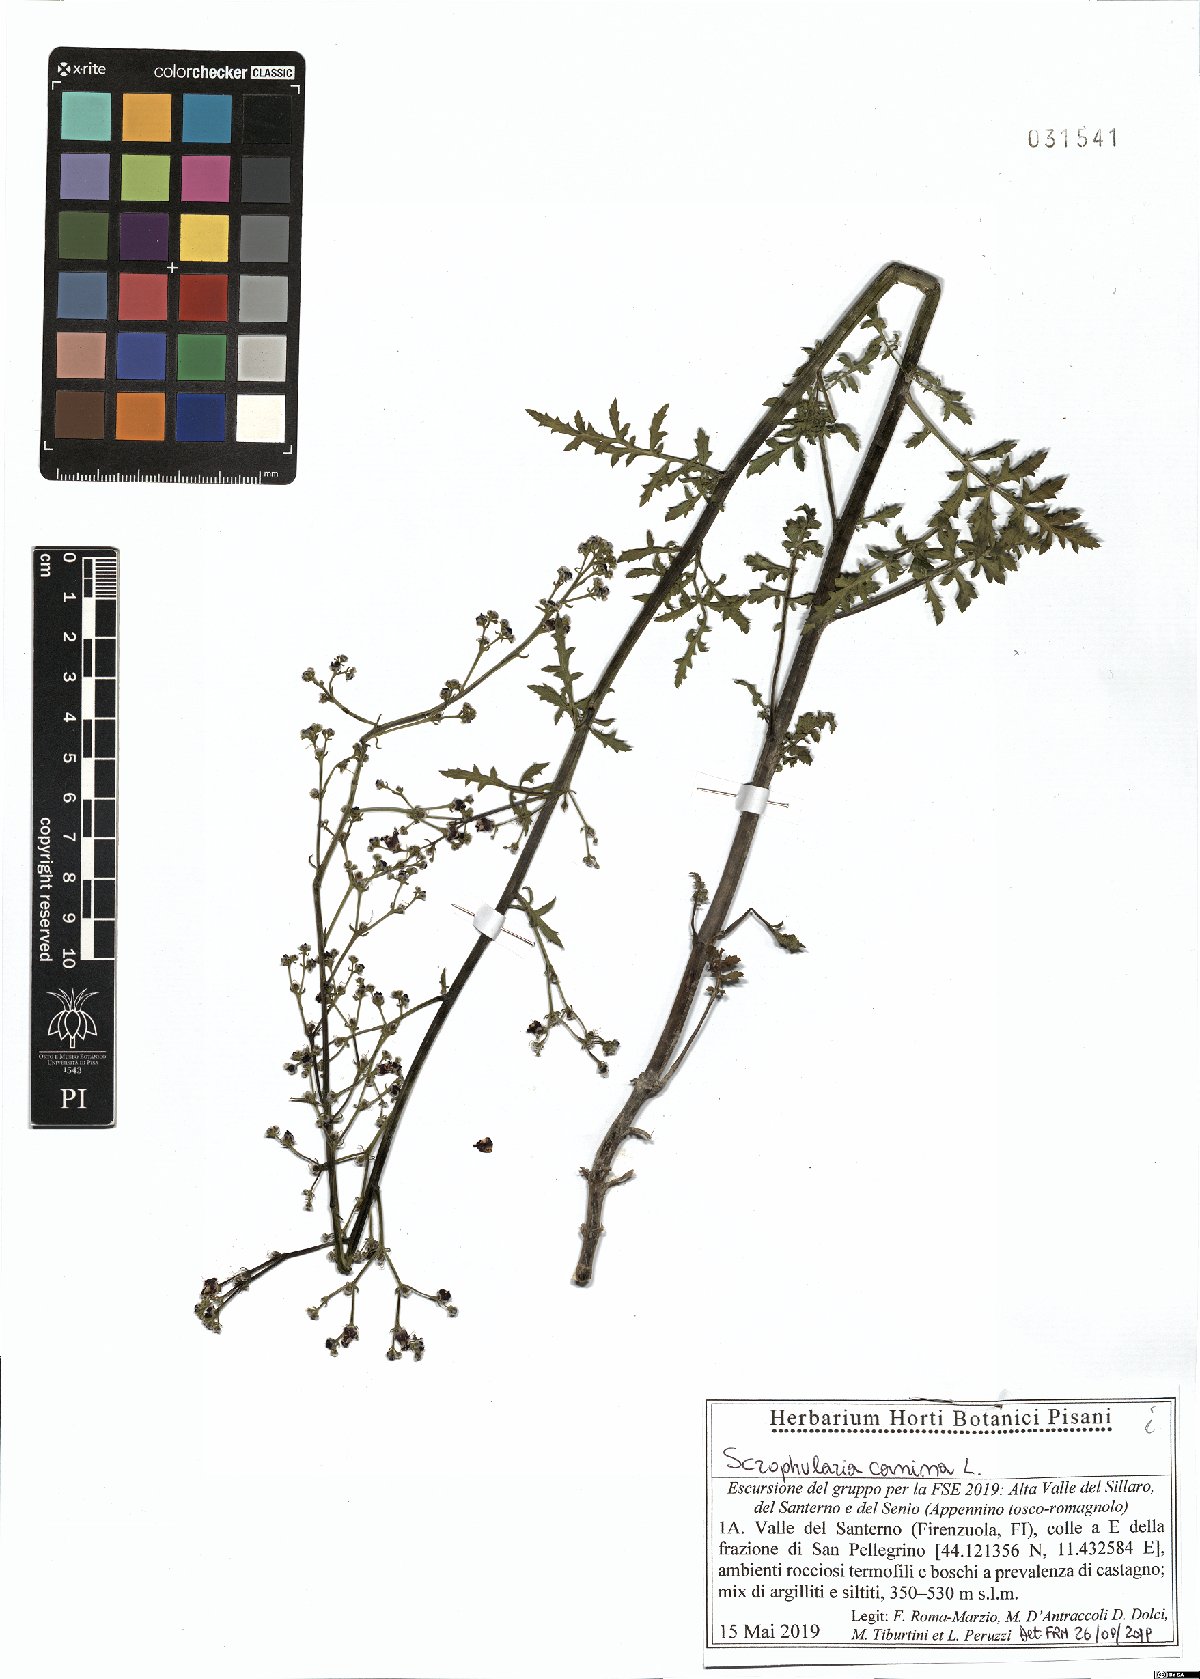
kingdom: Plantae
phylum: Tracheophyta
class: Magnoliopsida
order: Lamiales
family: Scrophulariaceae
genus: Scrophularia
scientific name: Scrophularia canina
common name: French figwort
